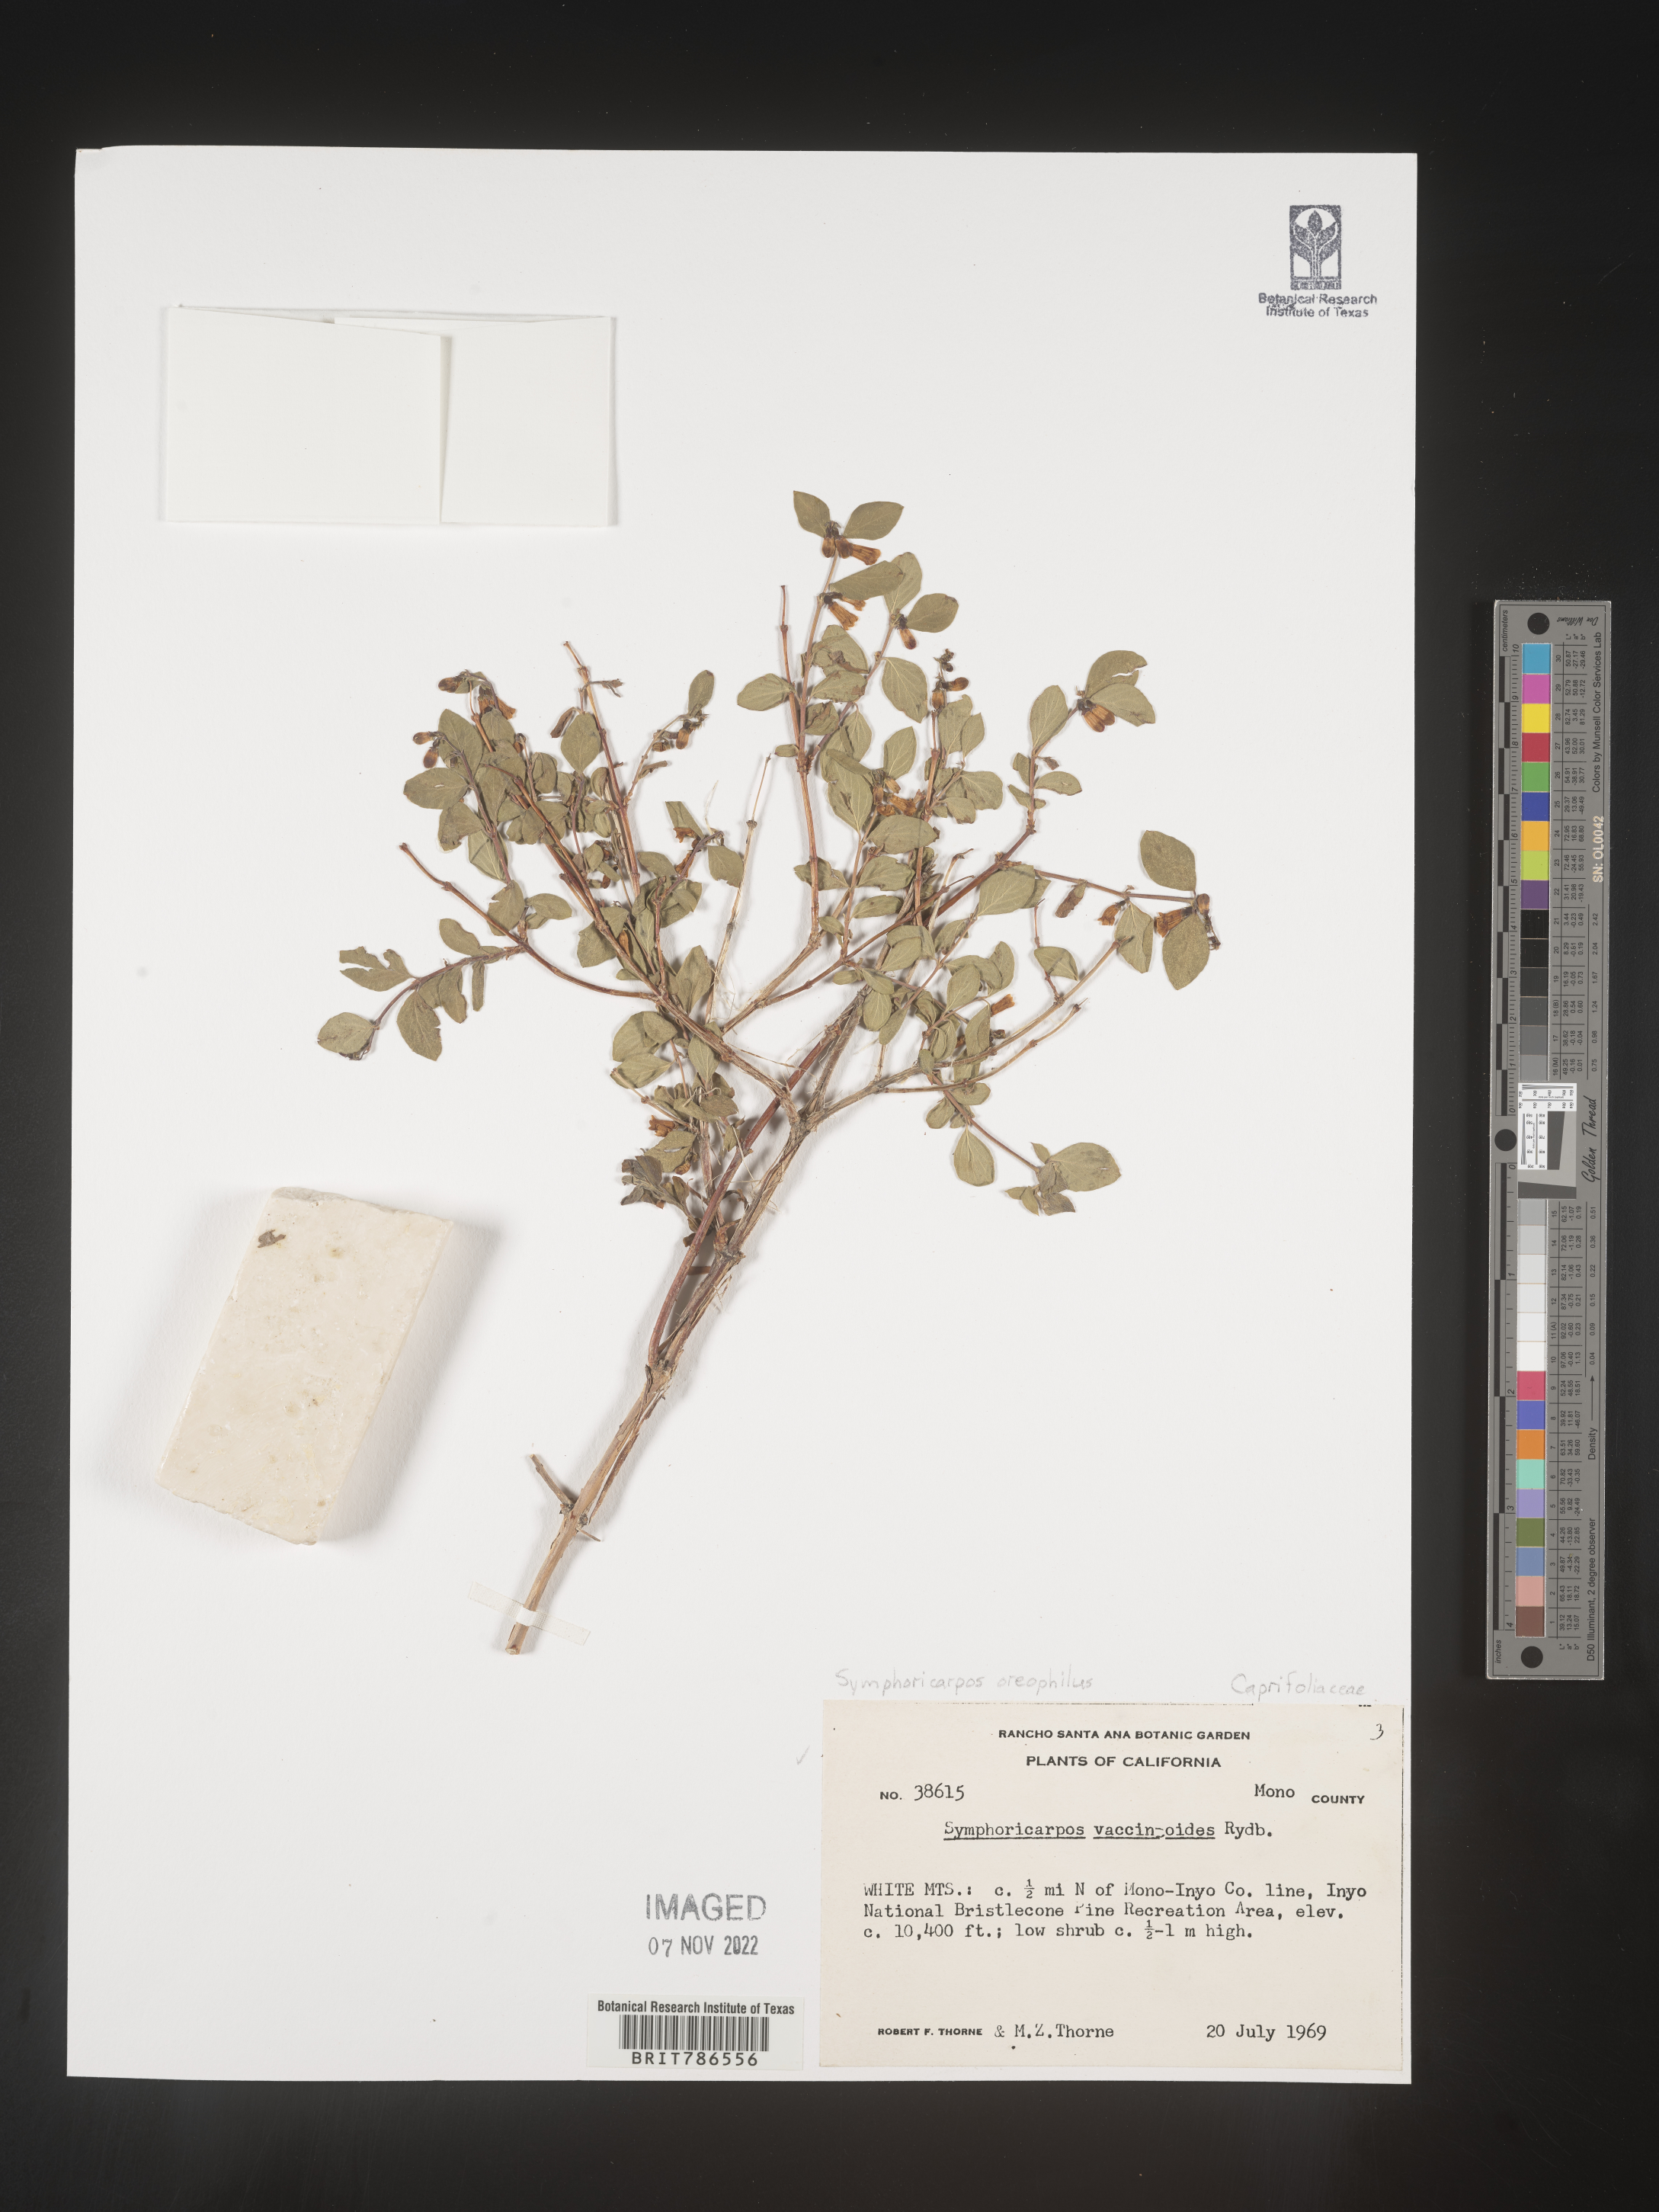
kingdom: Plantae
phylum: Tracheophyta
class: Magnoliopsida
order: Dipsacales
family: Caprifoliaceae
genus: Symphoricarpos
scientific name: Symphoricarpos oreophilus
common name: Mountain snowberry
